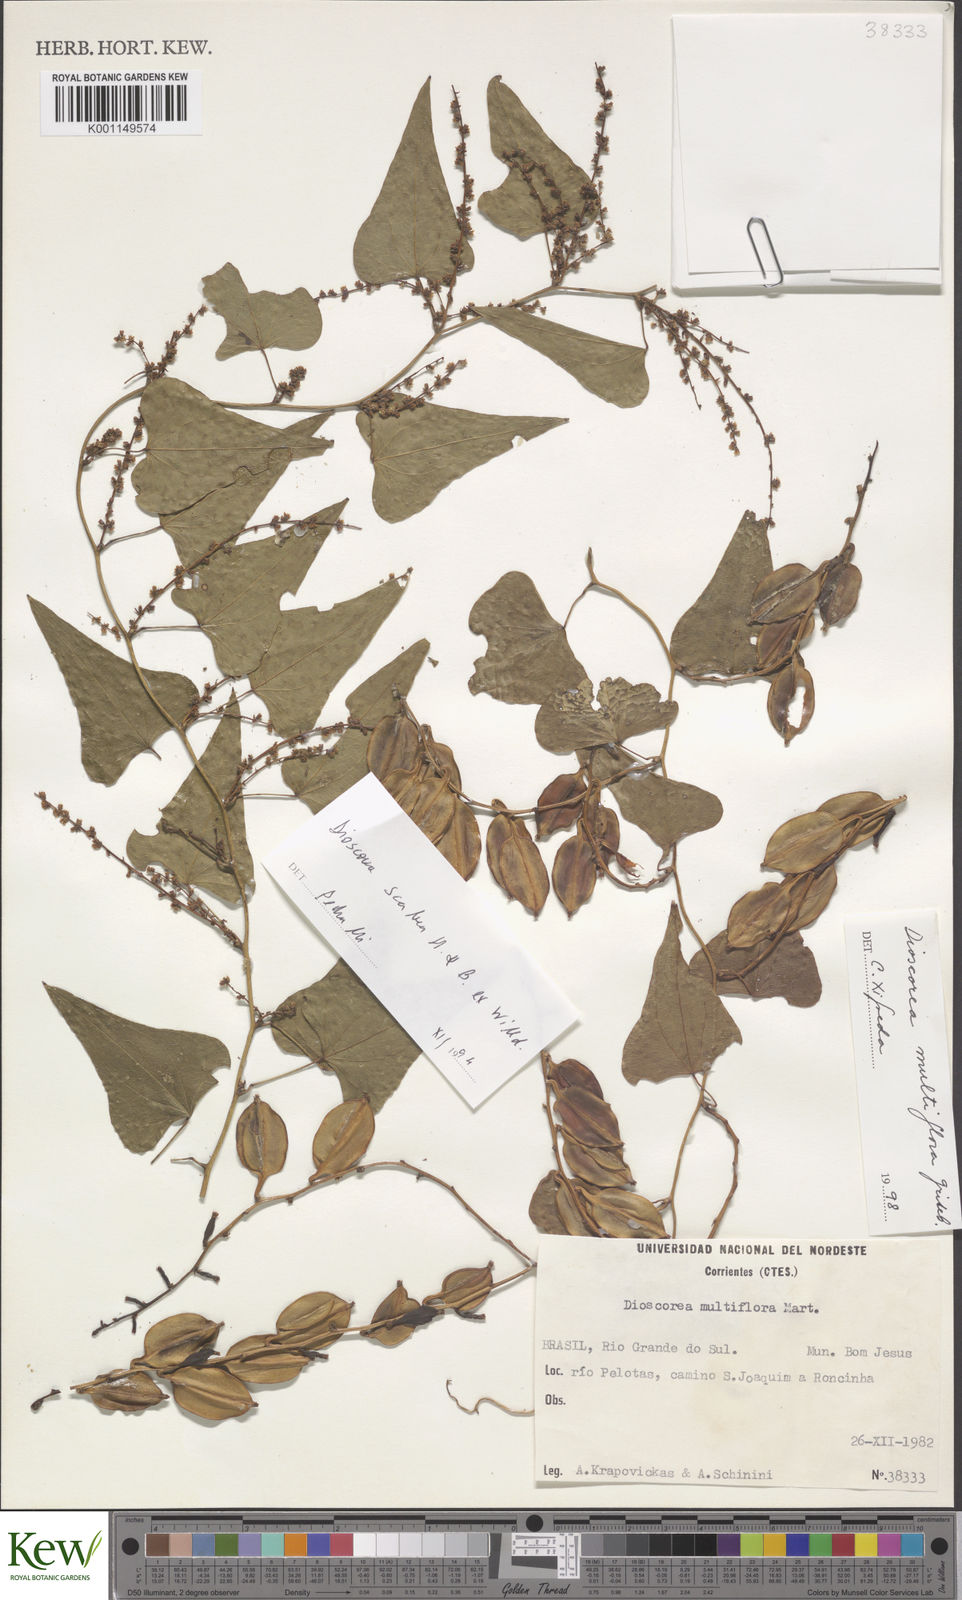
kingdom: Plantae
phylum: Tracheophyta
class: Liliopsida
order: Dioscoreales
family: Dioscoreaceae
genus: Dioscorea
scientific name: Dioscorea multiflora
